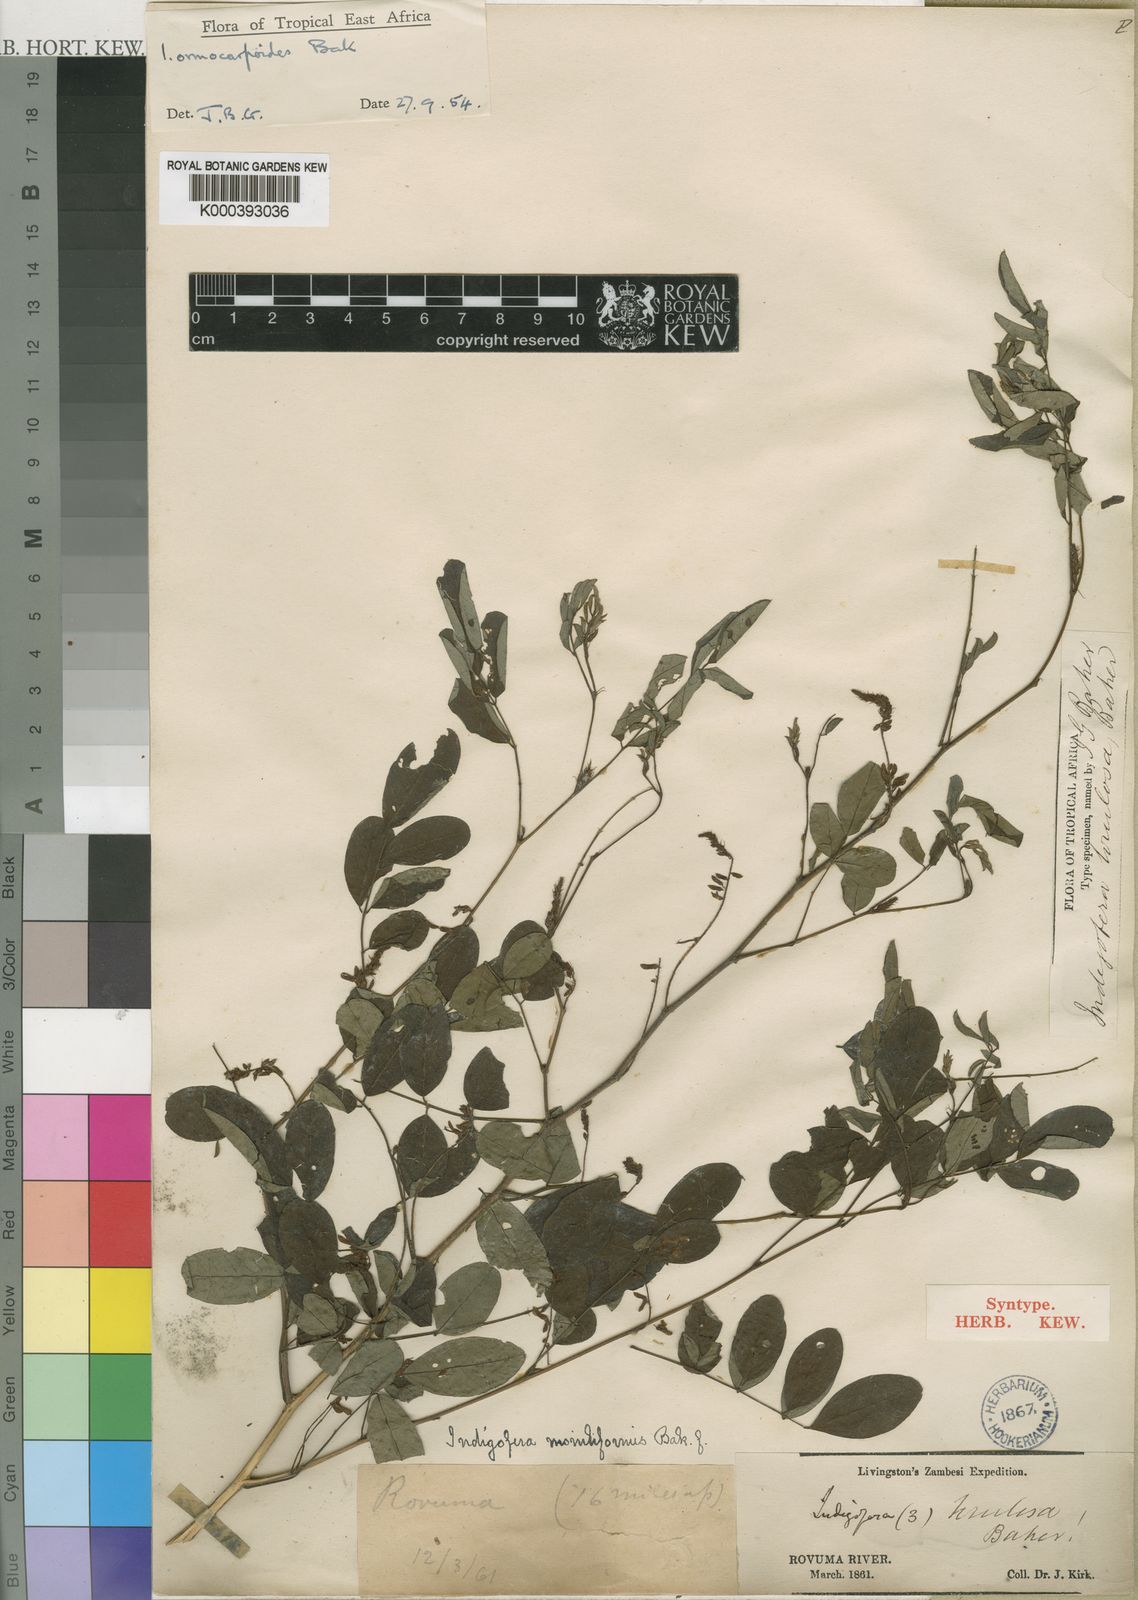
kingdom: Plantae
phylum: Tracheophyta
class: Magnoliopsida
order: Fabales
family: Fabaceae
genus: Indigofera
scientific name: Indigofera ormocarpoides
